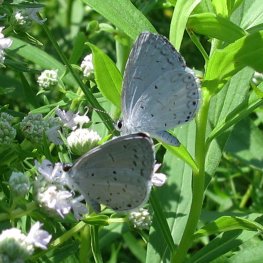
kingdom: Animalia
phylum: Arthropoda
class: Insecta
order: Lepidoptera
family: Lycaenidae
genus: Cyaniris
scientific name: Cyaniris neglecta
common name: Summer Azure
